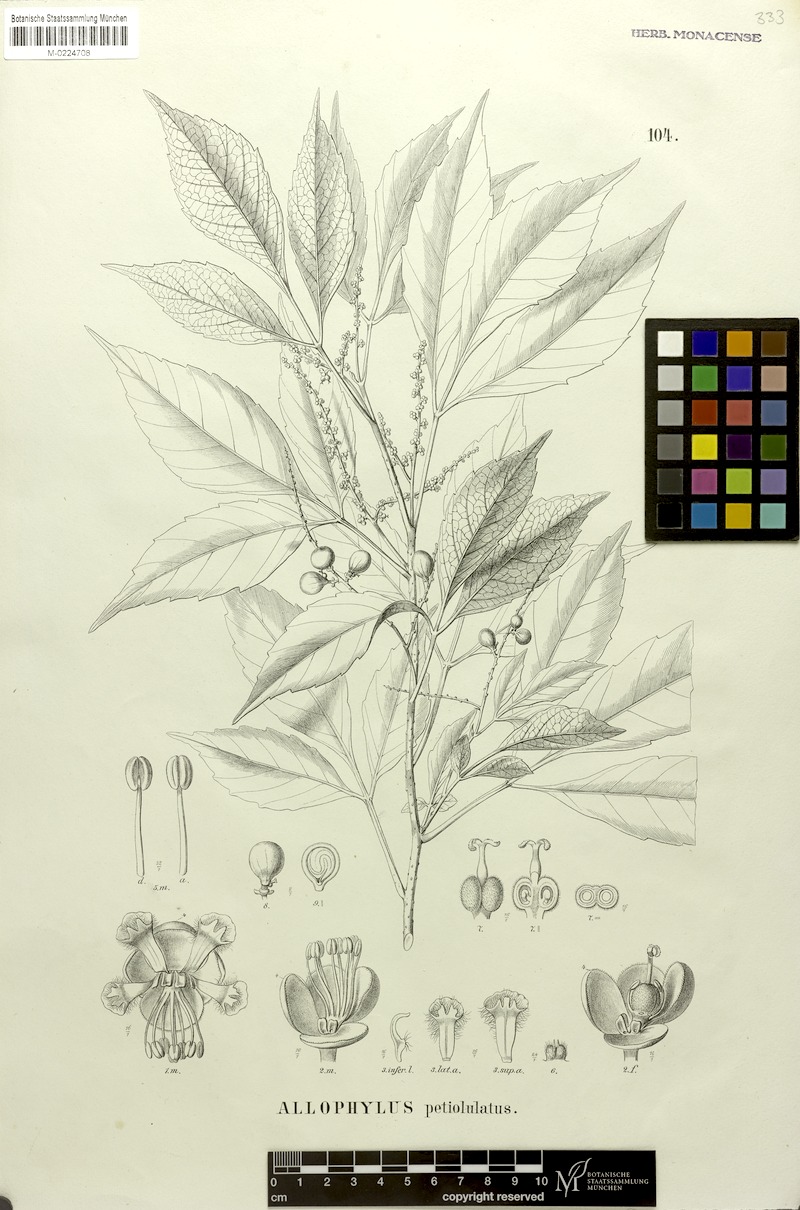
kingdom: Plantae
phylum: Tracheophyta
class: Magnoliopsida
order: Sapindales
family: Sapindaceae
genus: Allophylus
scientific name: Allophylus petiolulatus
